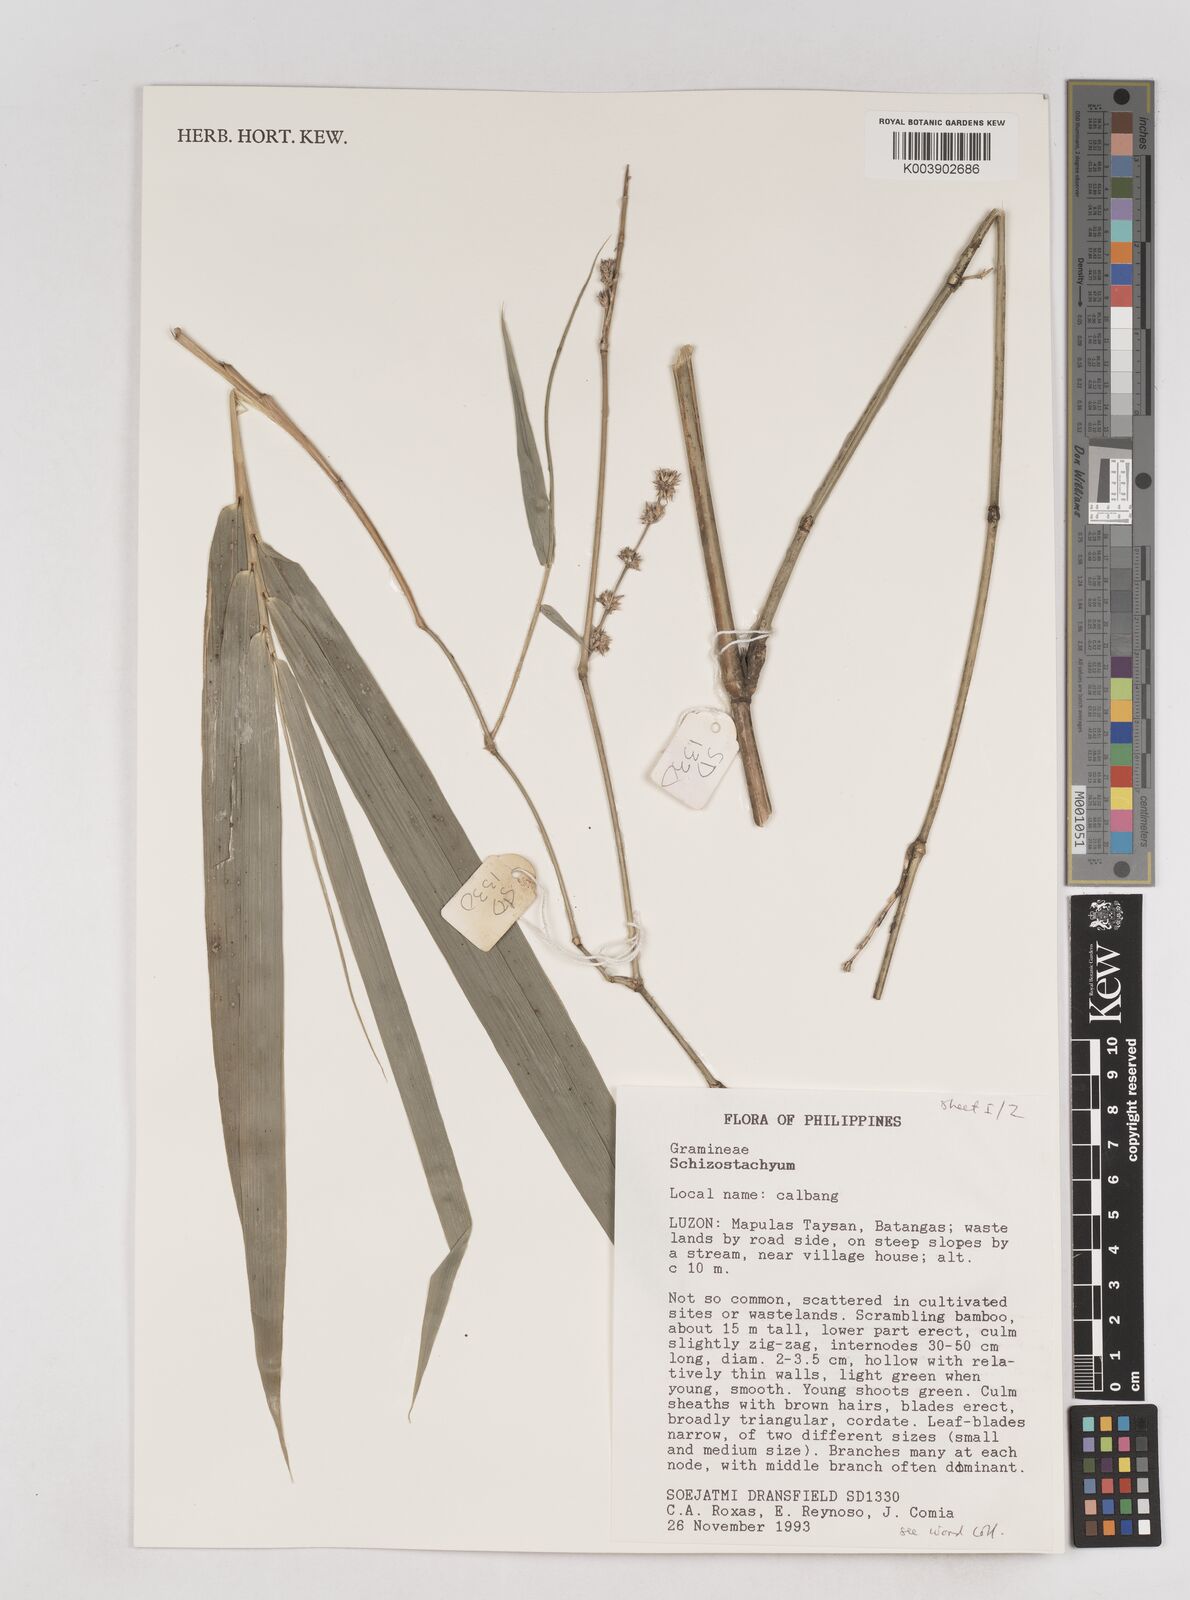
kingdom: Plantae
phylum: Tracheophyta
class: Liliopsida
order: Poales
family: Poaceae
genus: Schizostachyum
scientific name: Schizostachyum textorium
